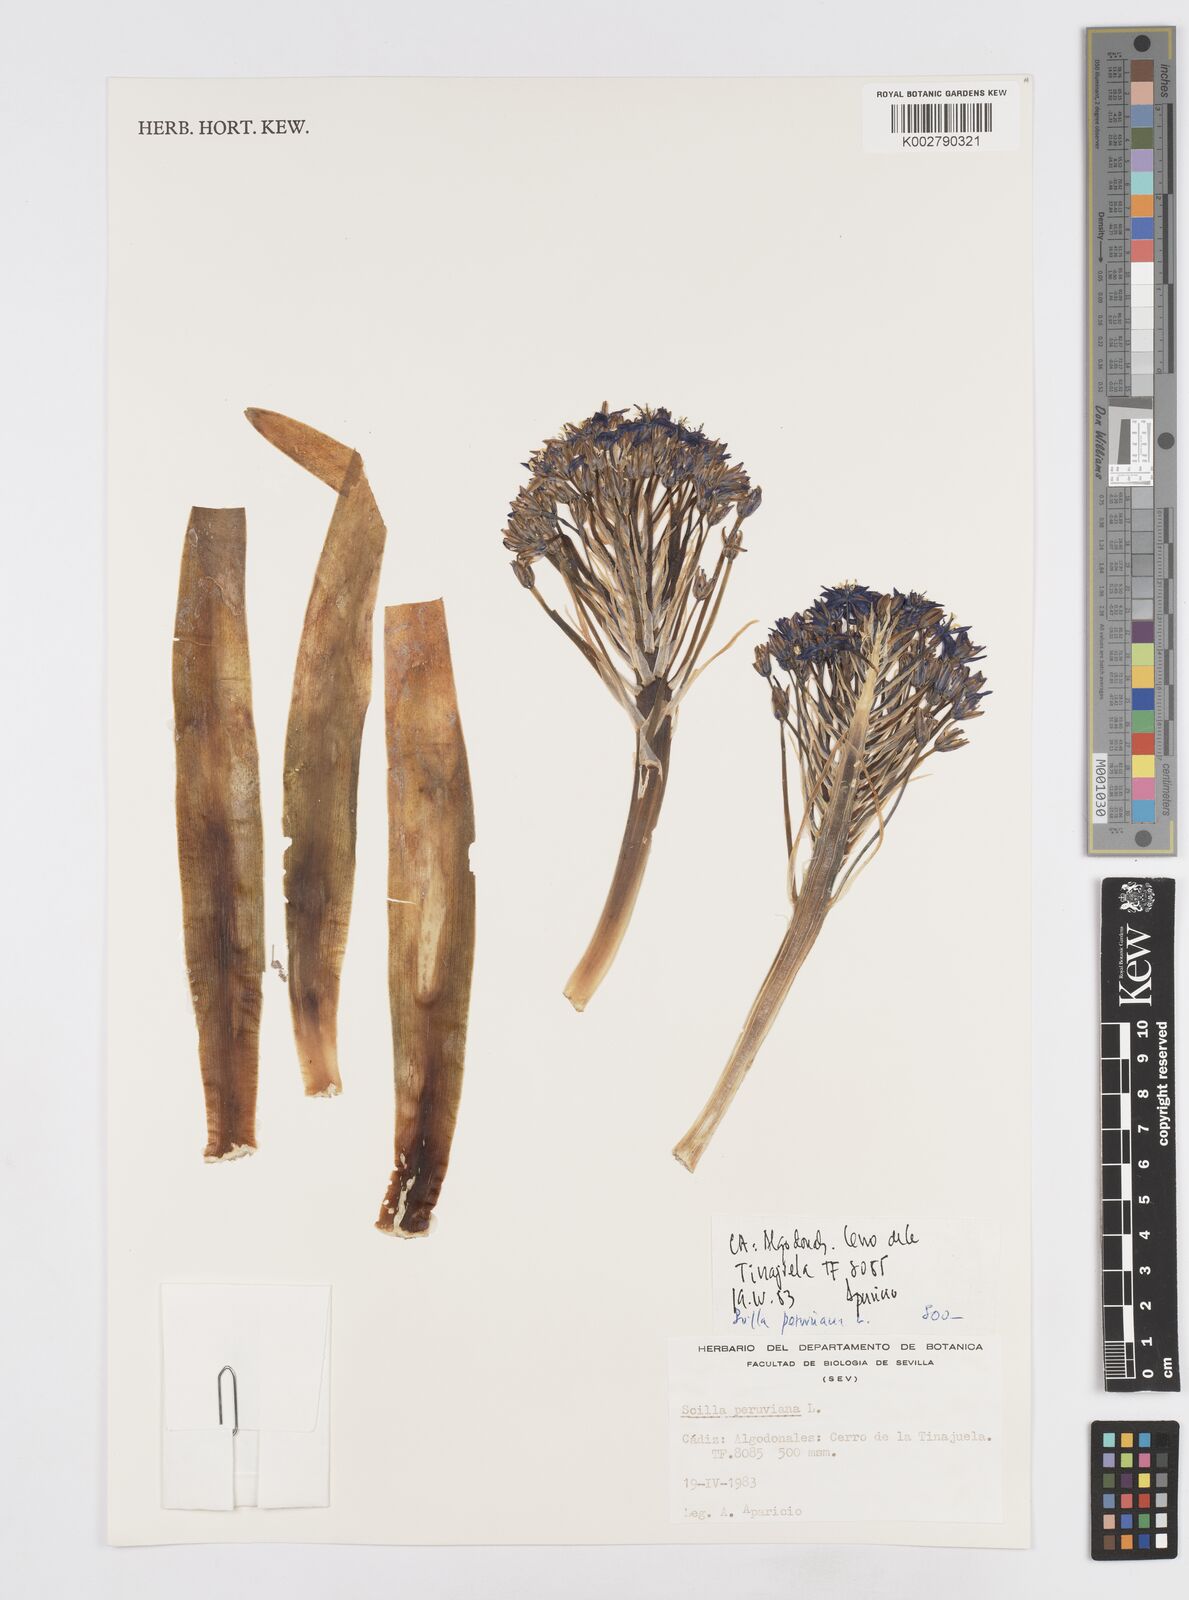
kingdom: Plantae
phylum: Tracheophyta
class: Liliopsida
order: Asparagales
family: Asparagaceae
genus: Scilla
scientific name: Scilla peruviana
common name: Portuguese squill
